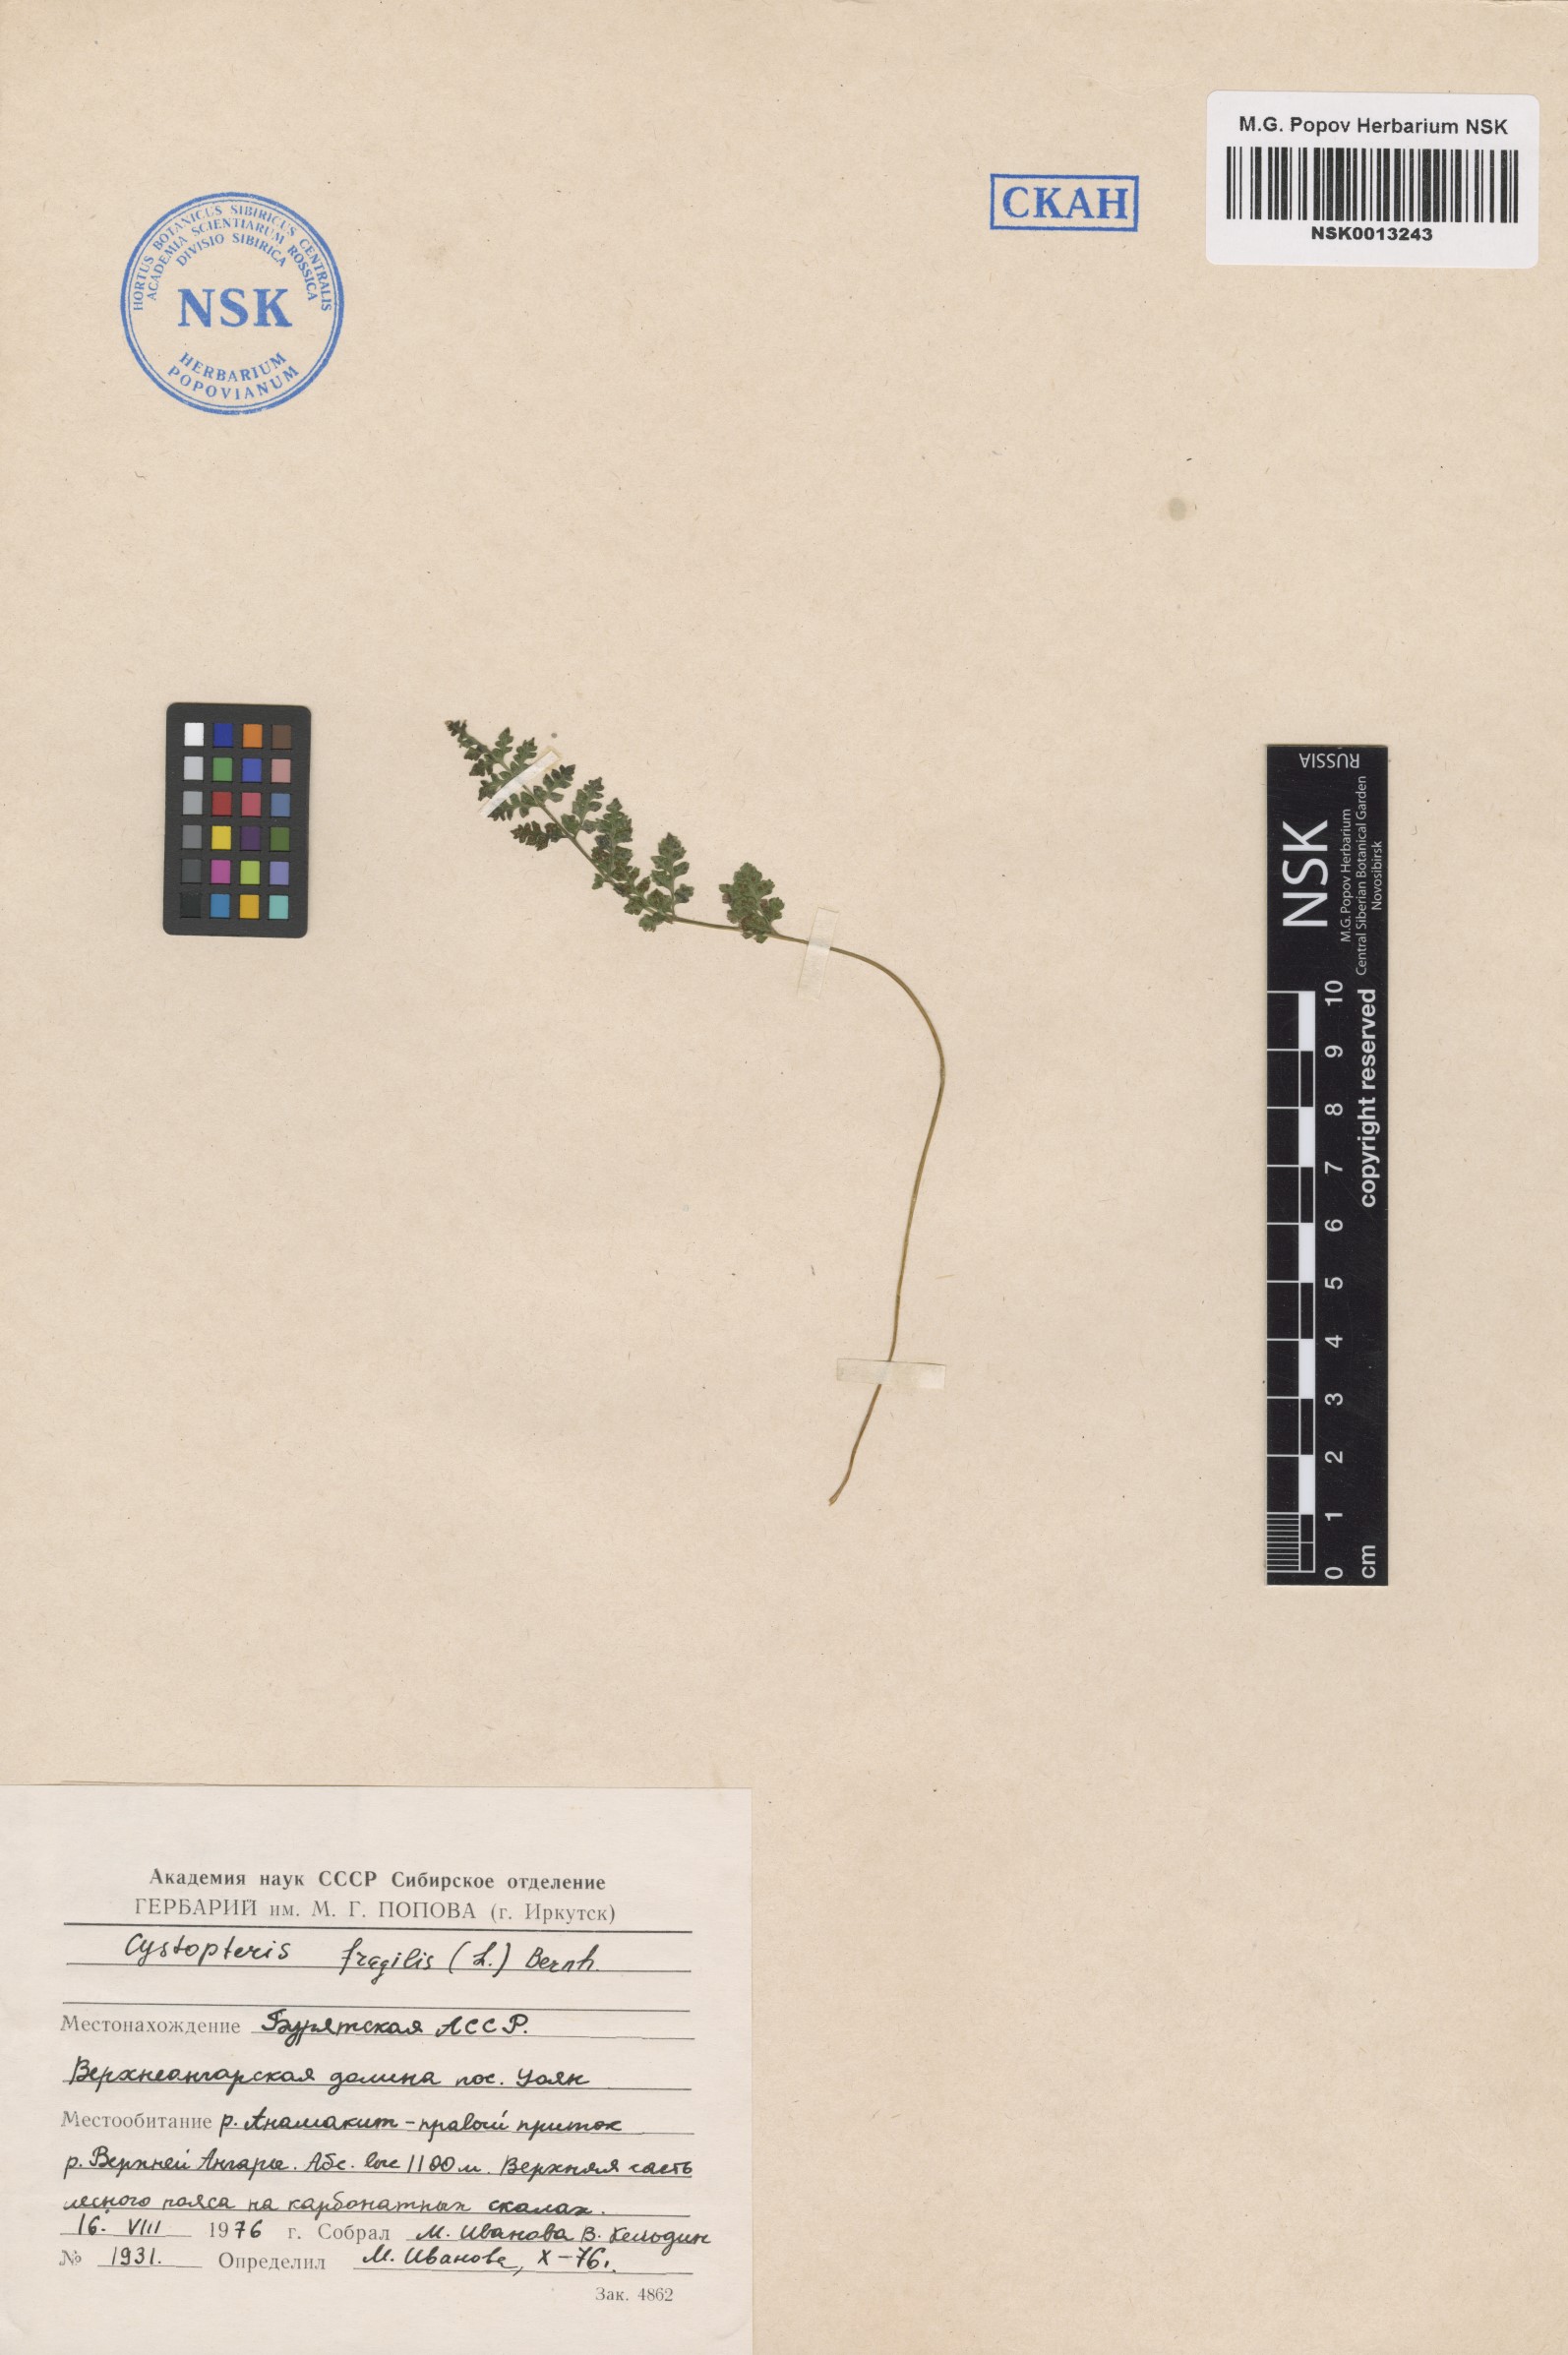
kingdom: Plantae
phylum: Tracheophyta
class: Polypodiopsida
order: Polypodiales
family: Cystopteridaceae
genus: Cystopteris
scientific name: Cystopteris fragilis
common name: Brittle bladder fern
